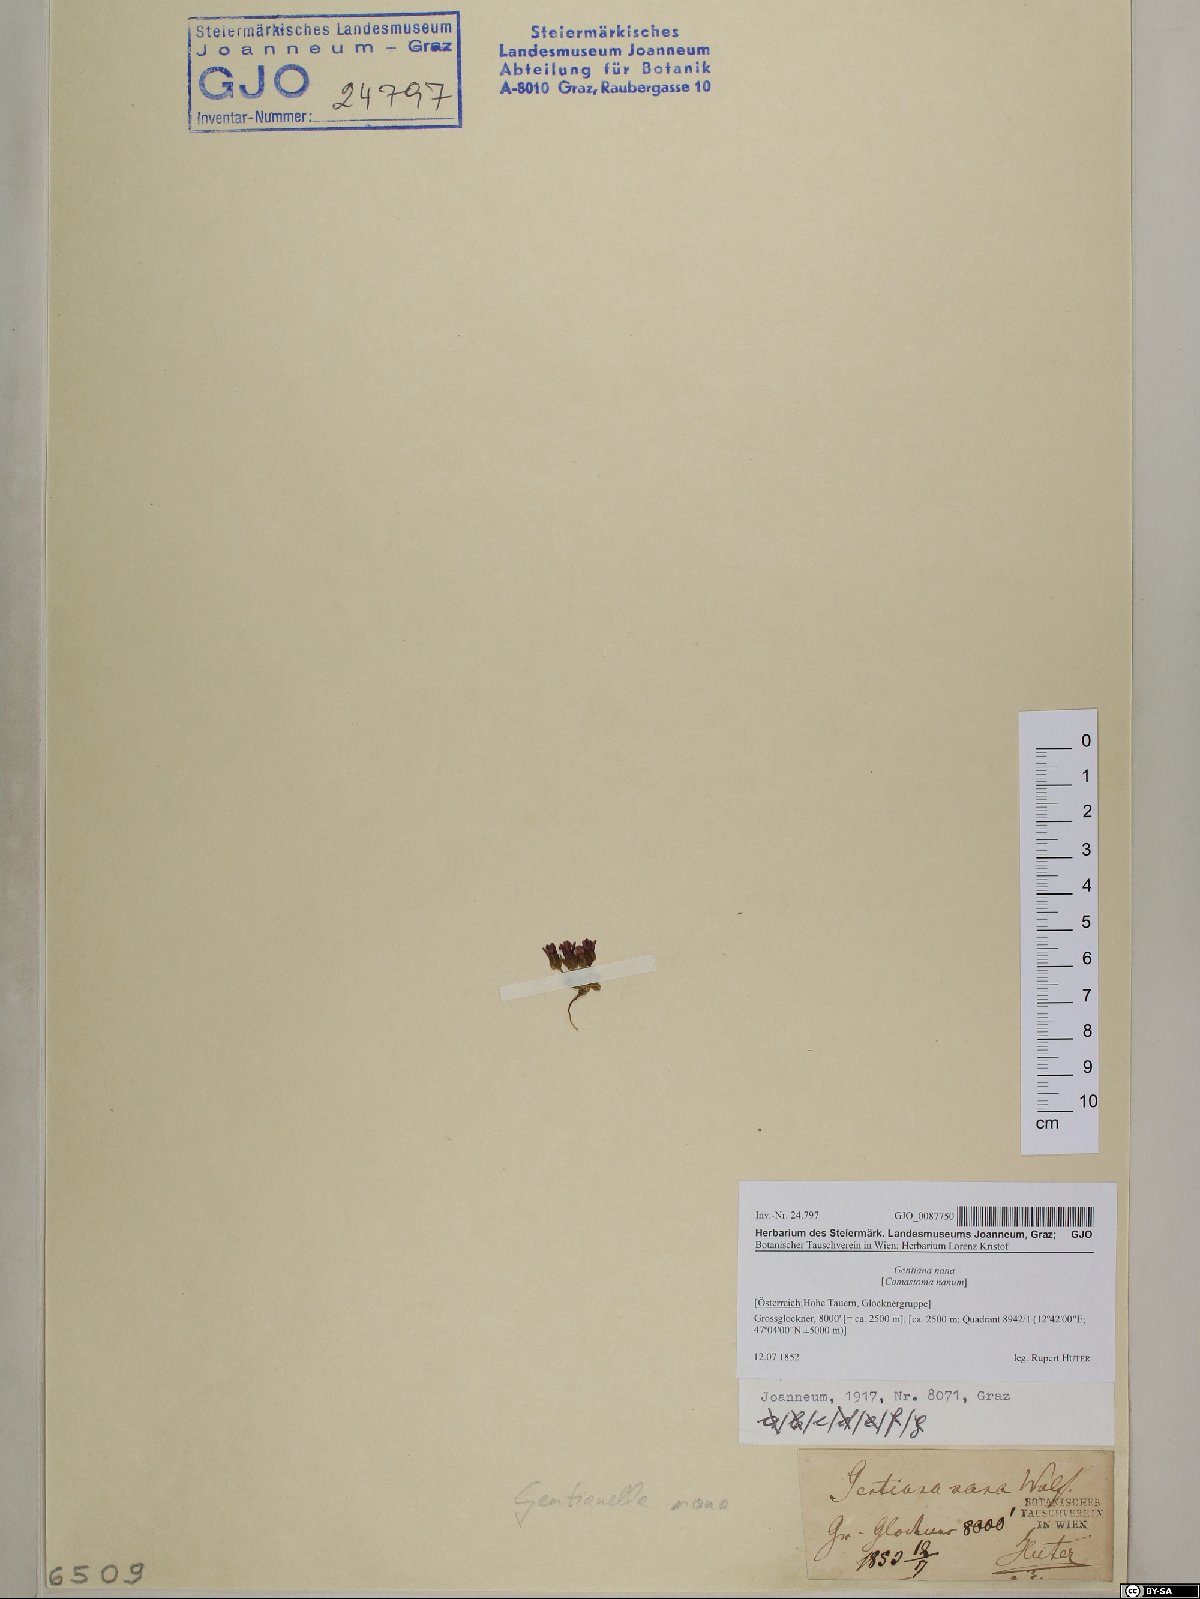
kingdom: Plantae
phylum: Tracheophyta
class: Magnoliopsida
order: Gentianales
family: Gentianaceae
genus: Comastoma
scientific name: Comastoma nanum
